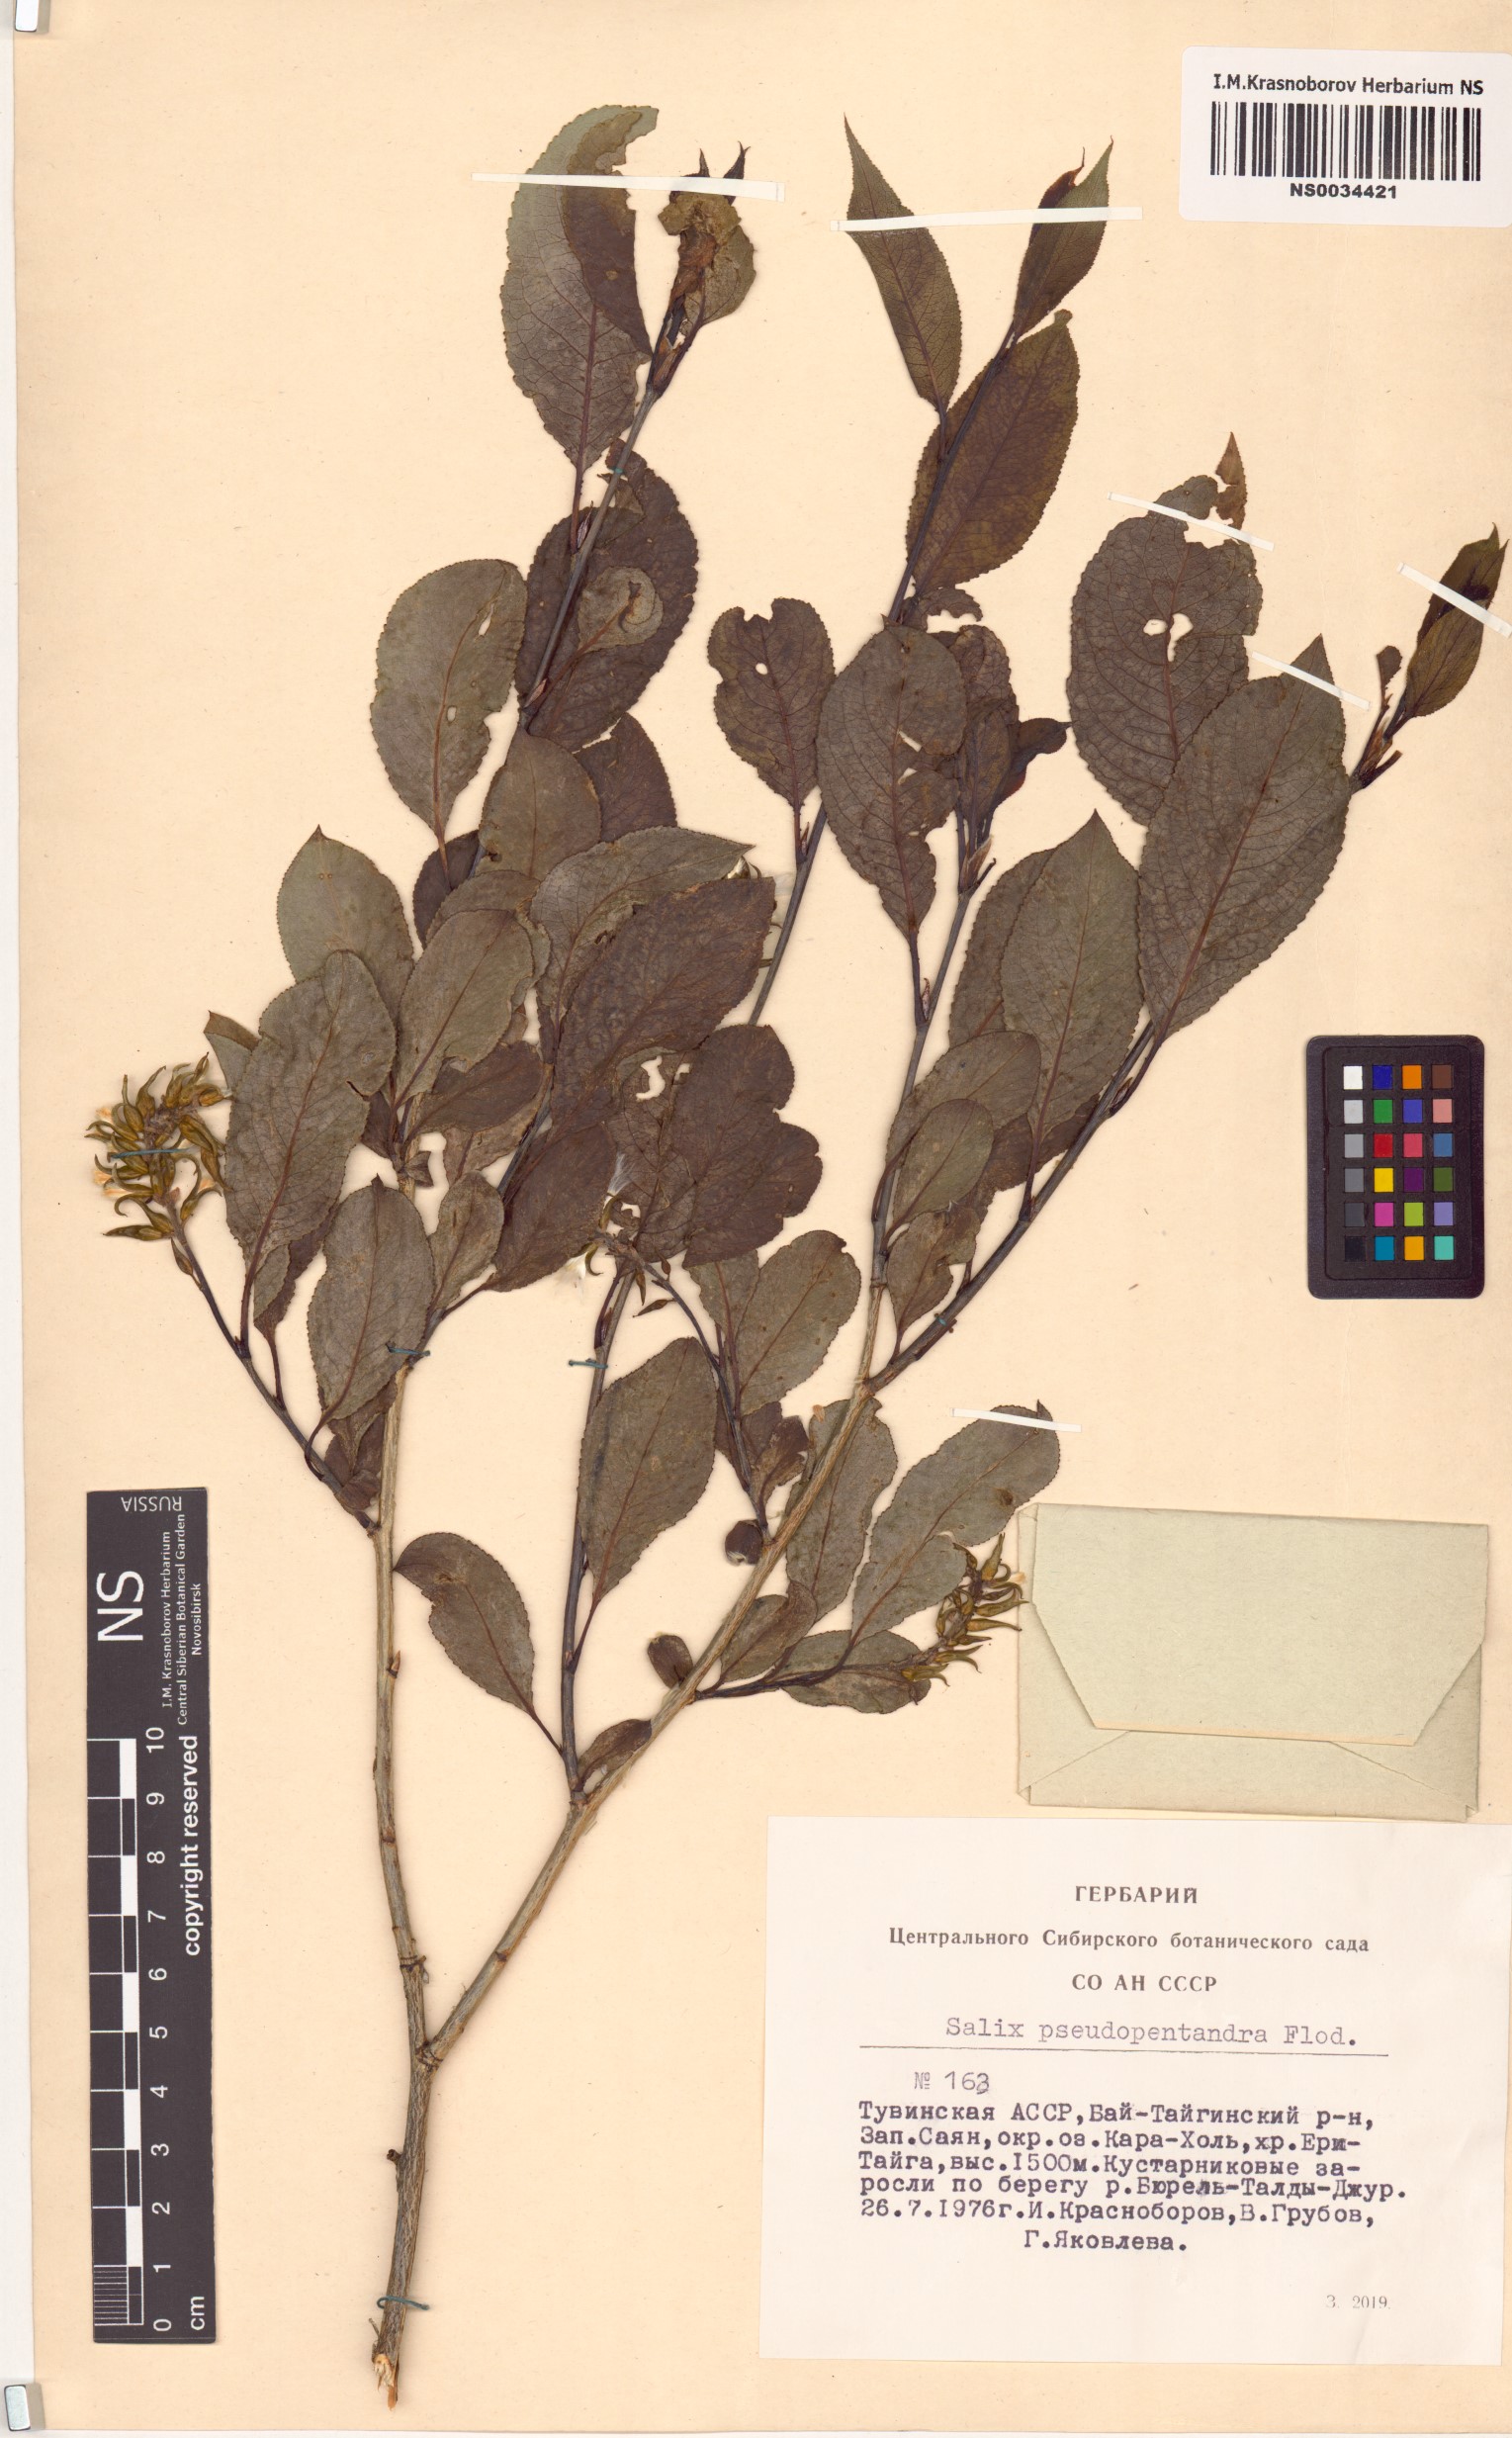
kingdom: Plantae
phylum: Tracheophyta
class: Magnoliopsida
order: Malpighiales
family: Salicaceae
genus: Salix
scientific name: Salix pseudopentandra
